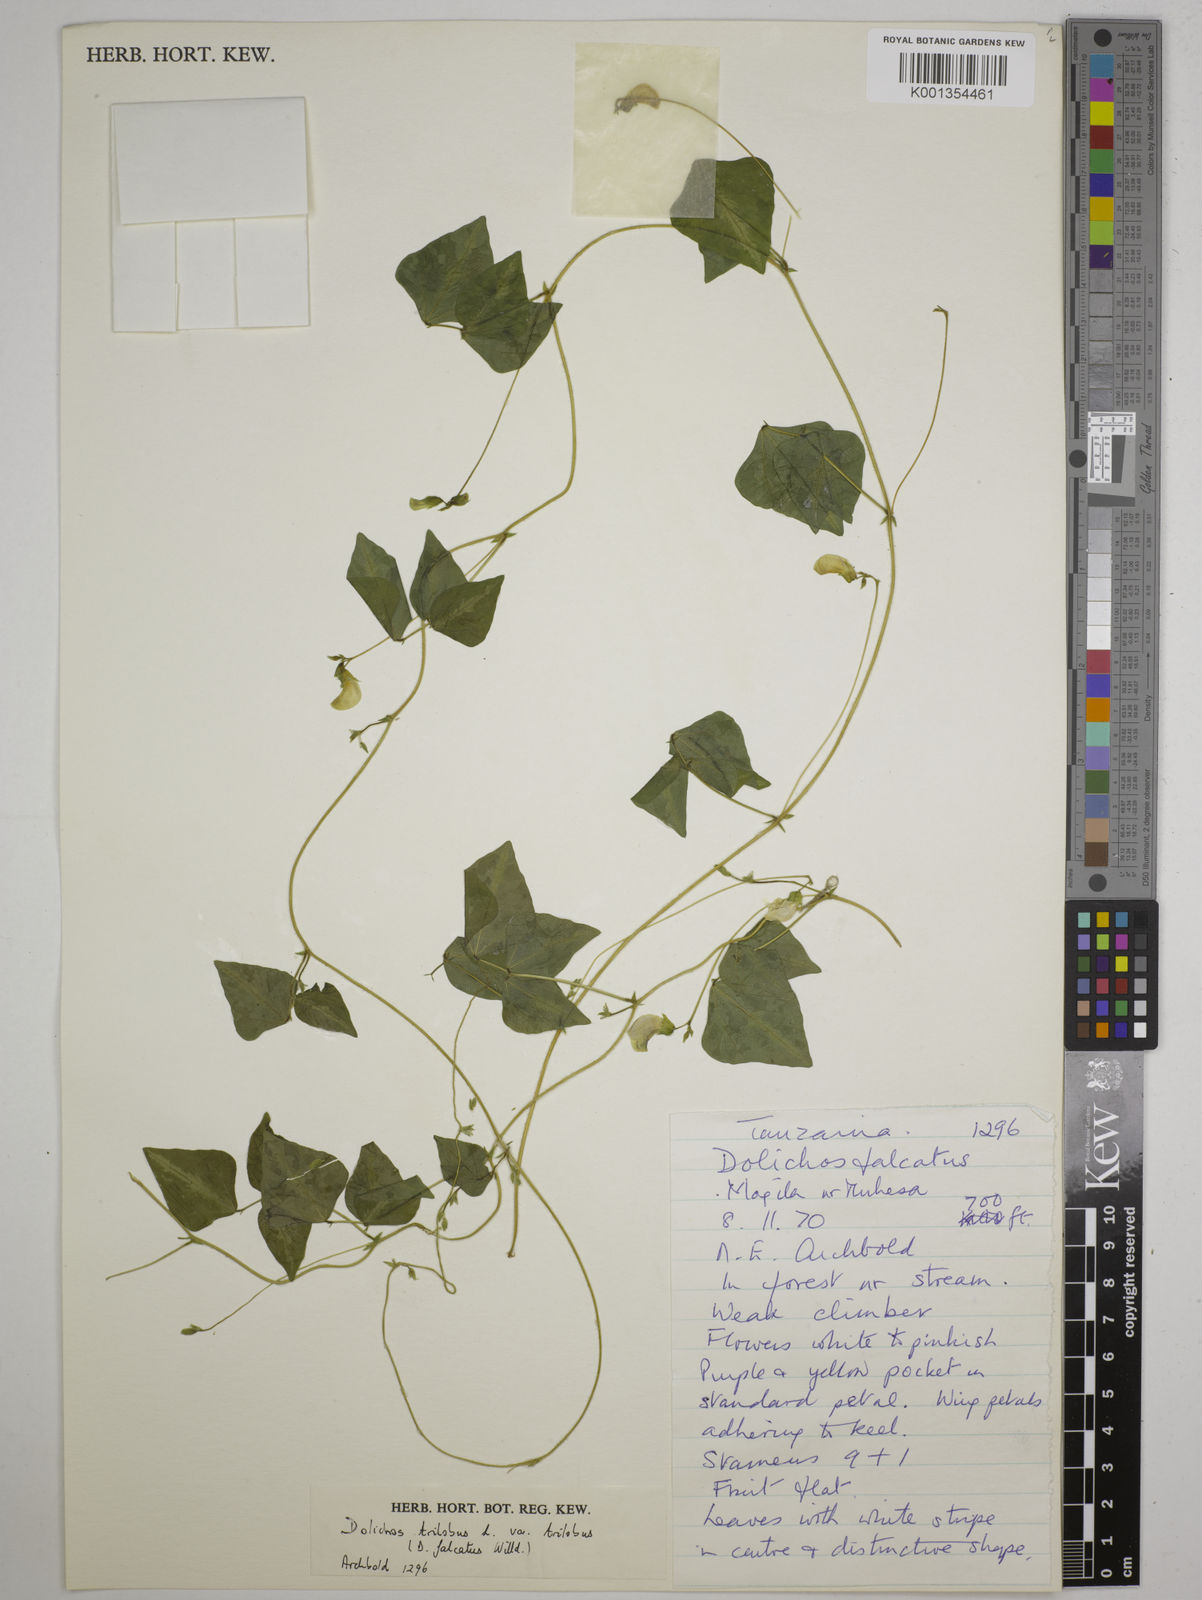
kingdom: Plantae
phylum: Tracheophyta
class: Magnoliopsida
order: Fabales
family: Fabaceae
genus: Dolichos
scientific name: Dolichos
